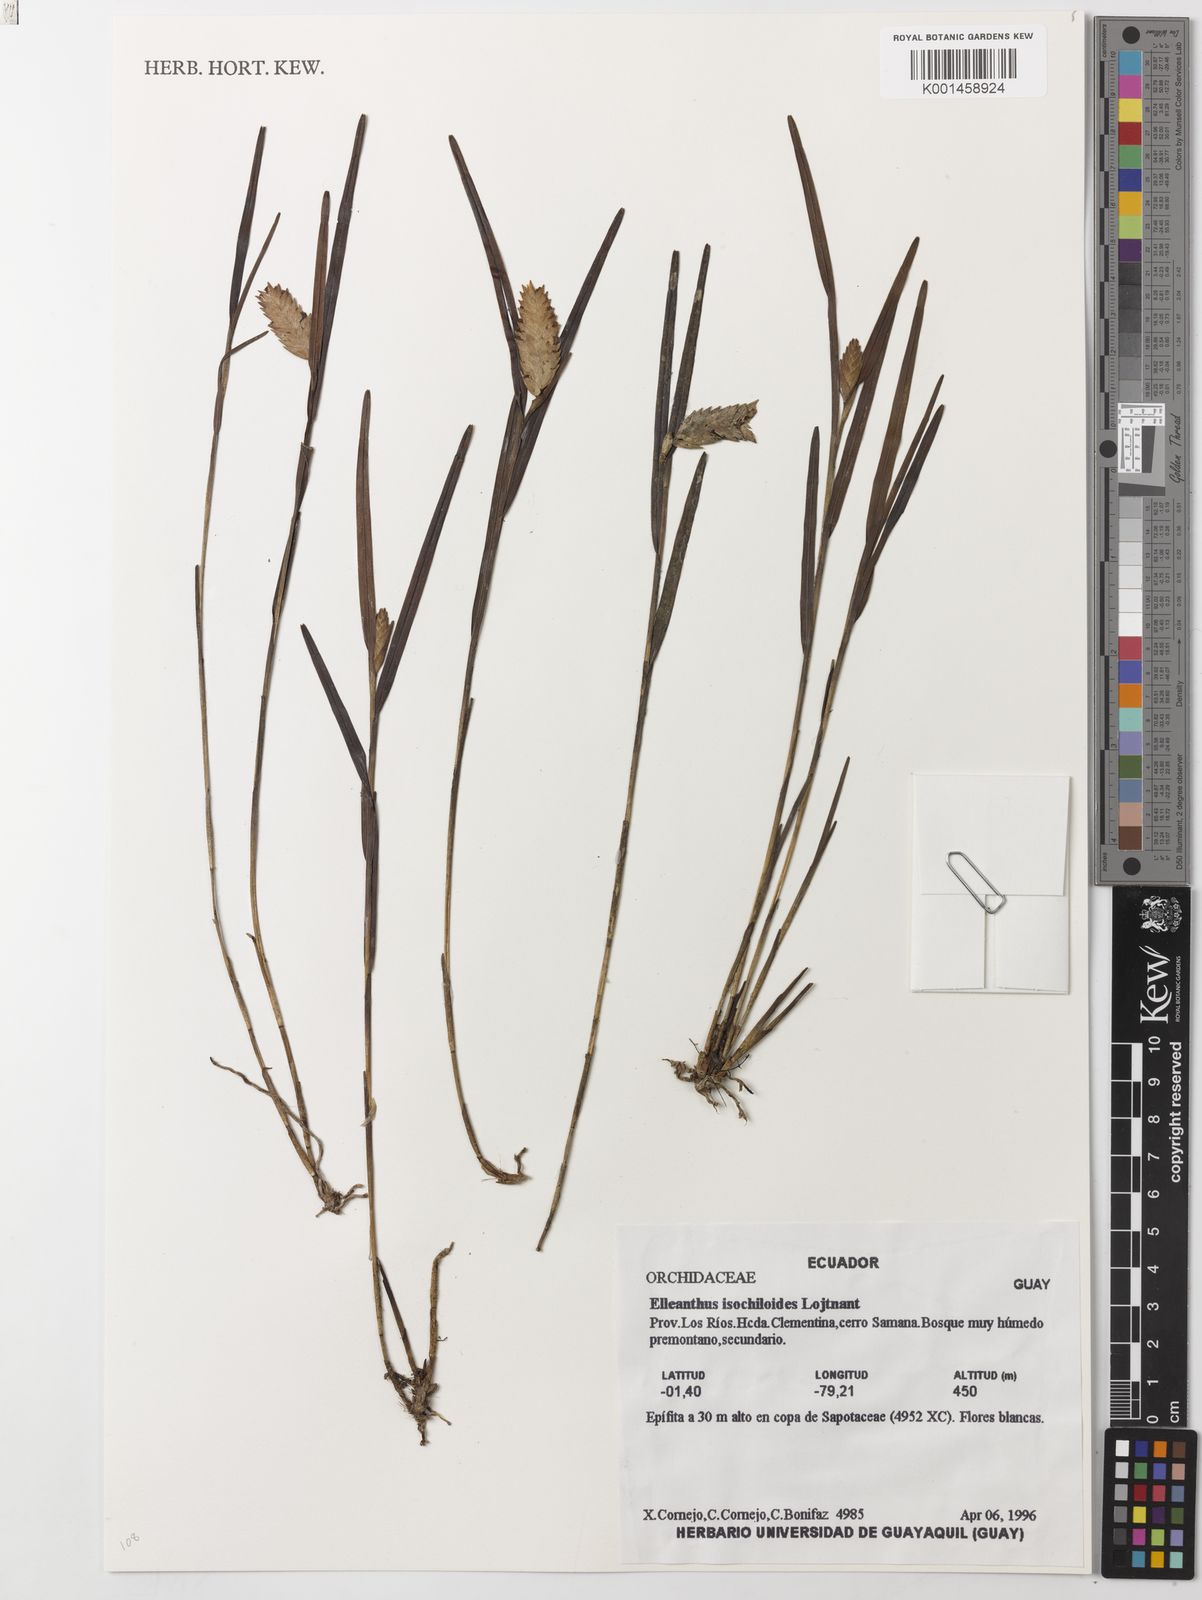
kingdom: Plantae
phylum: Tracheophyta
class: Liliopsida
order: Asparagales
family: Orchidaceae
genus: Elleanthus
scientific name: Elleanthus
